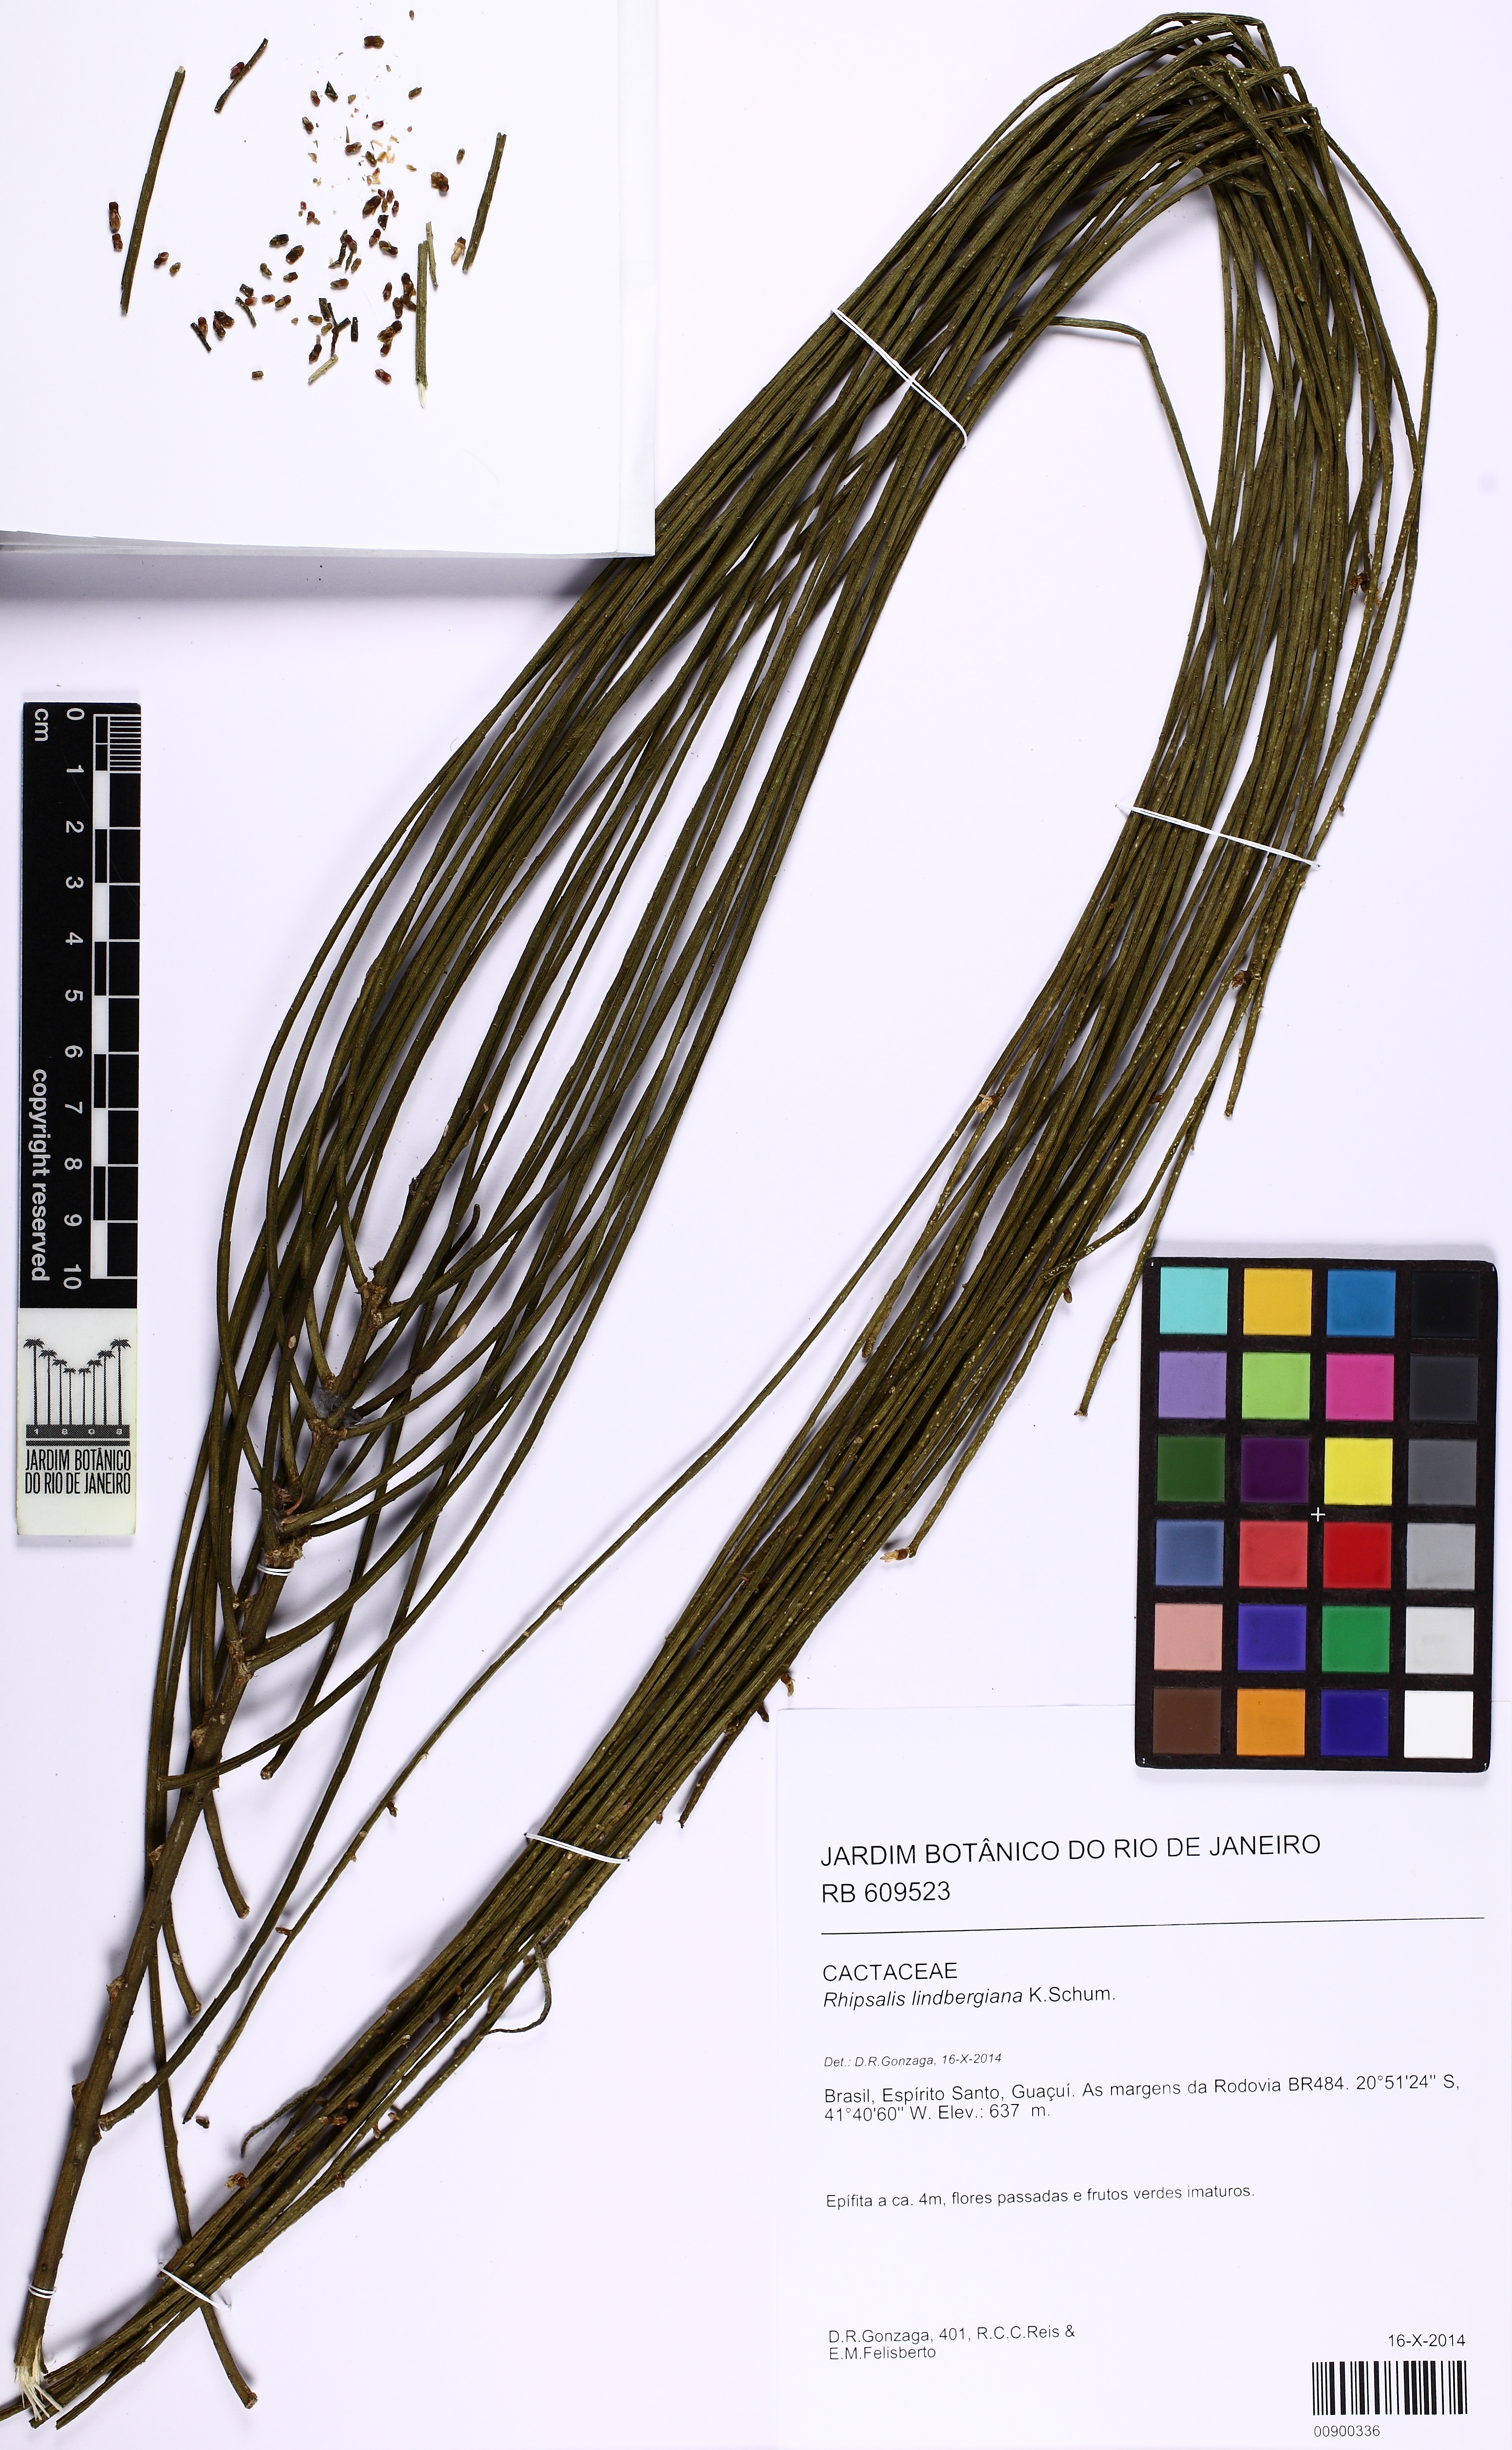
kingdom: Plantae
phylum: Tracheophyta
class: Magnoliopsida
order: Caryophyllales
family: Cactaceae
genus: Rhipsalis
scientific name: Rhipsalis lindbergiana
